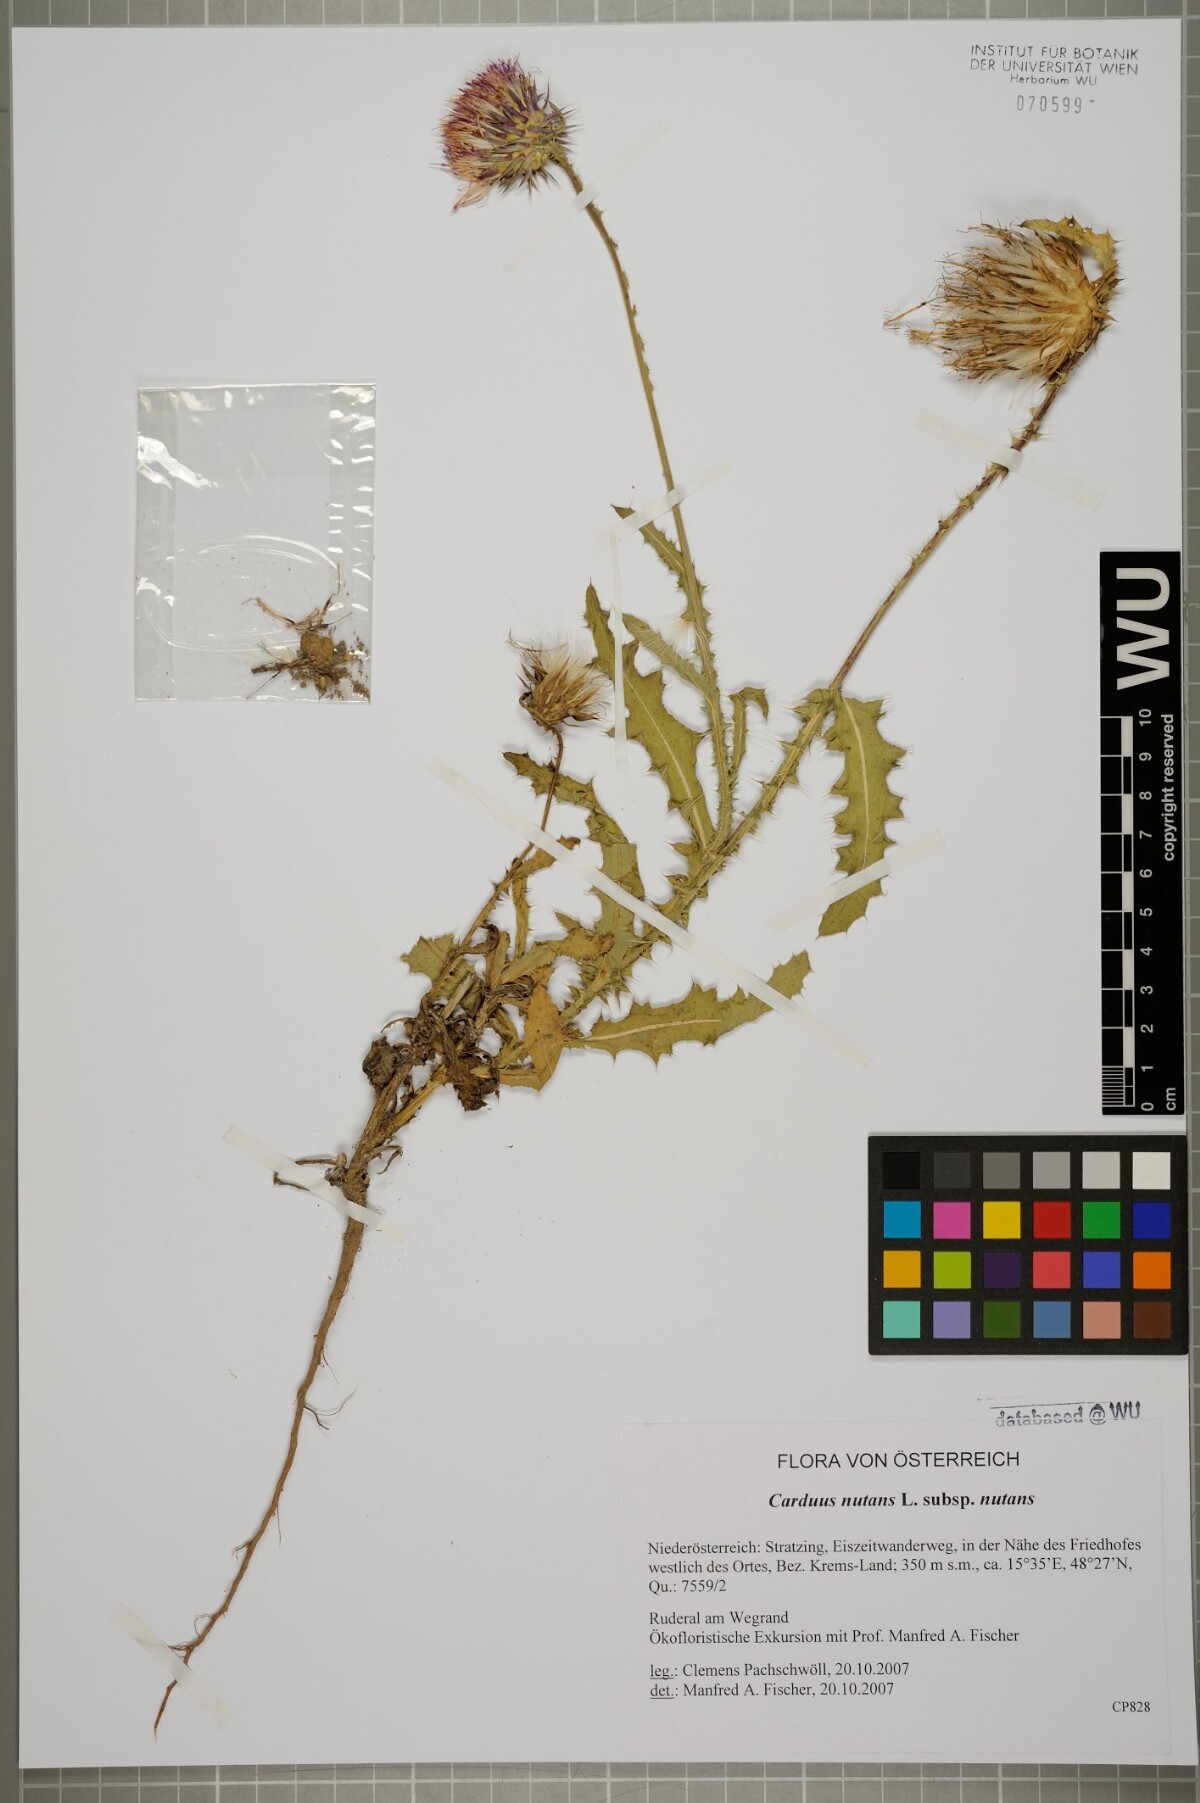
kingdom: Plantae
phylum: Tracheophyta
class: Magnoliopsida
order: Asterales
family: Asteraceae
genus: Carduus
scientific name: Carduus nutans
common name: Musk thistle
